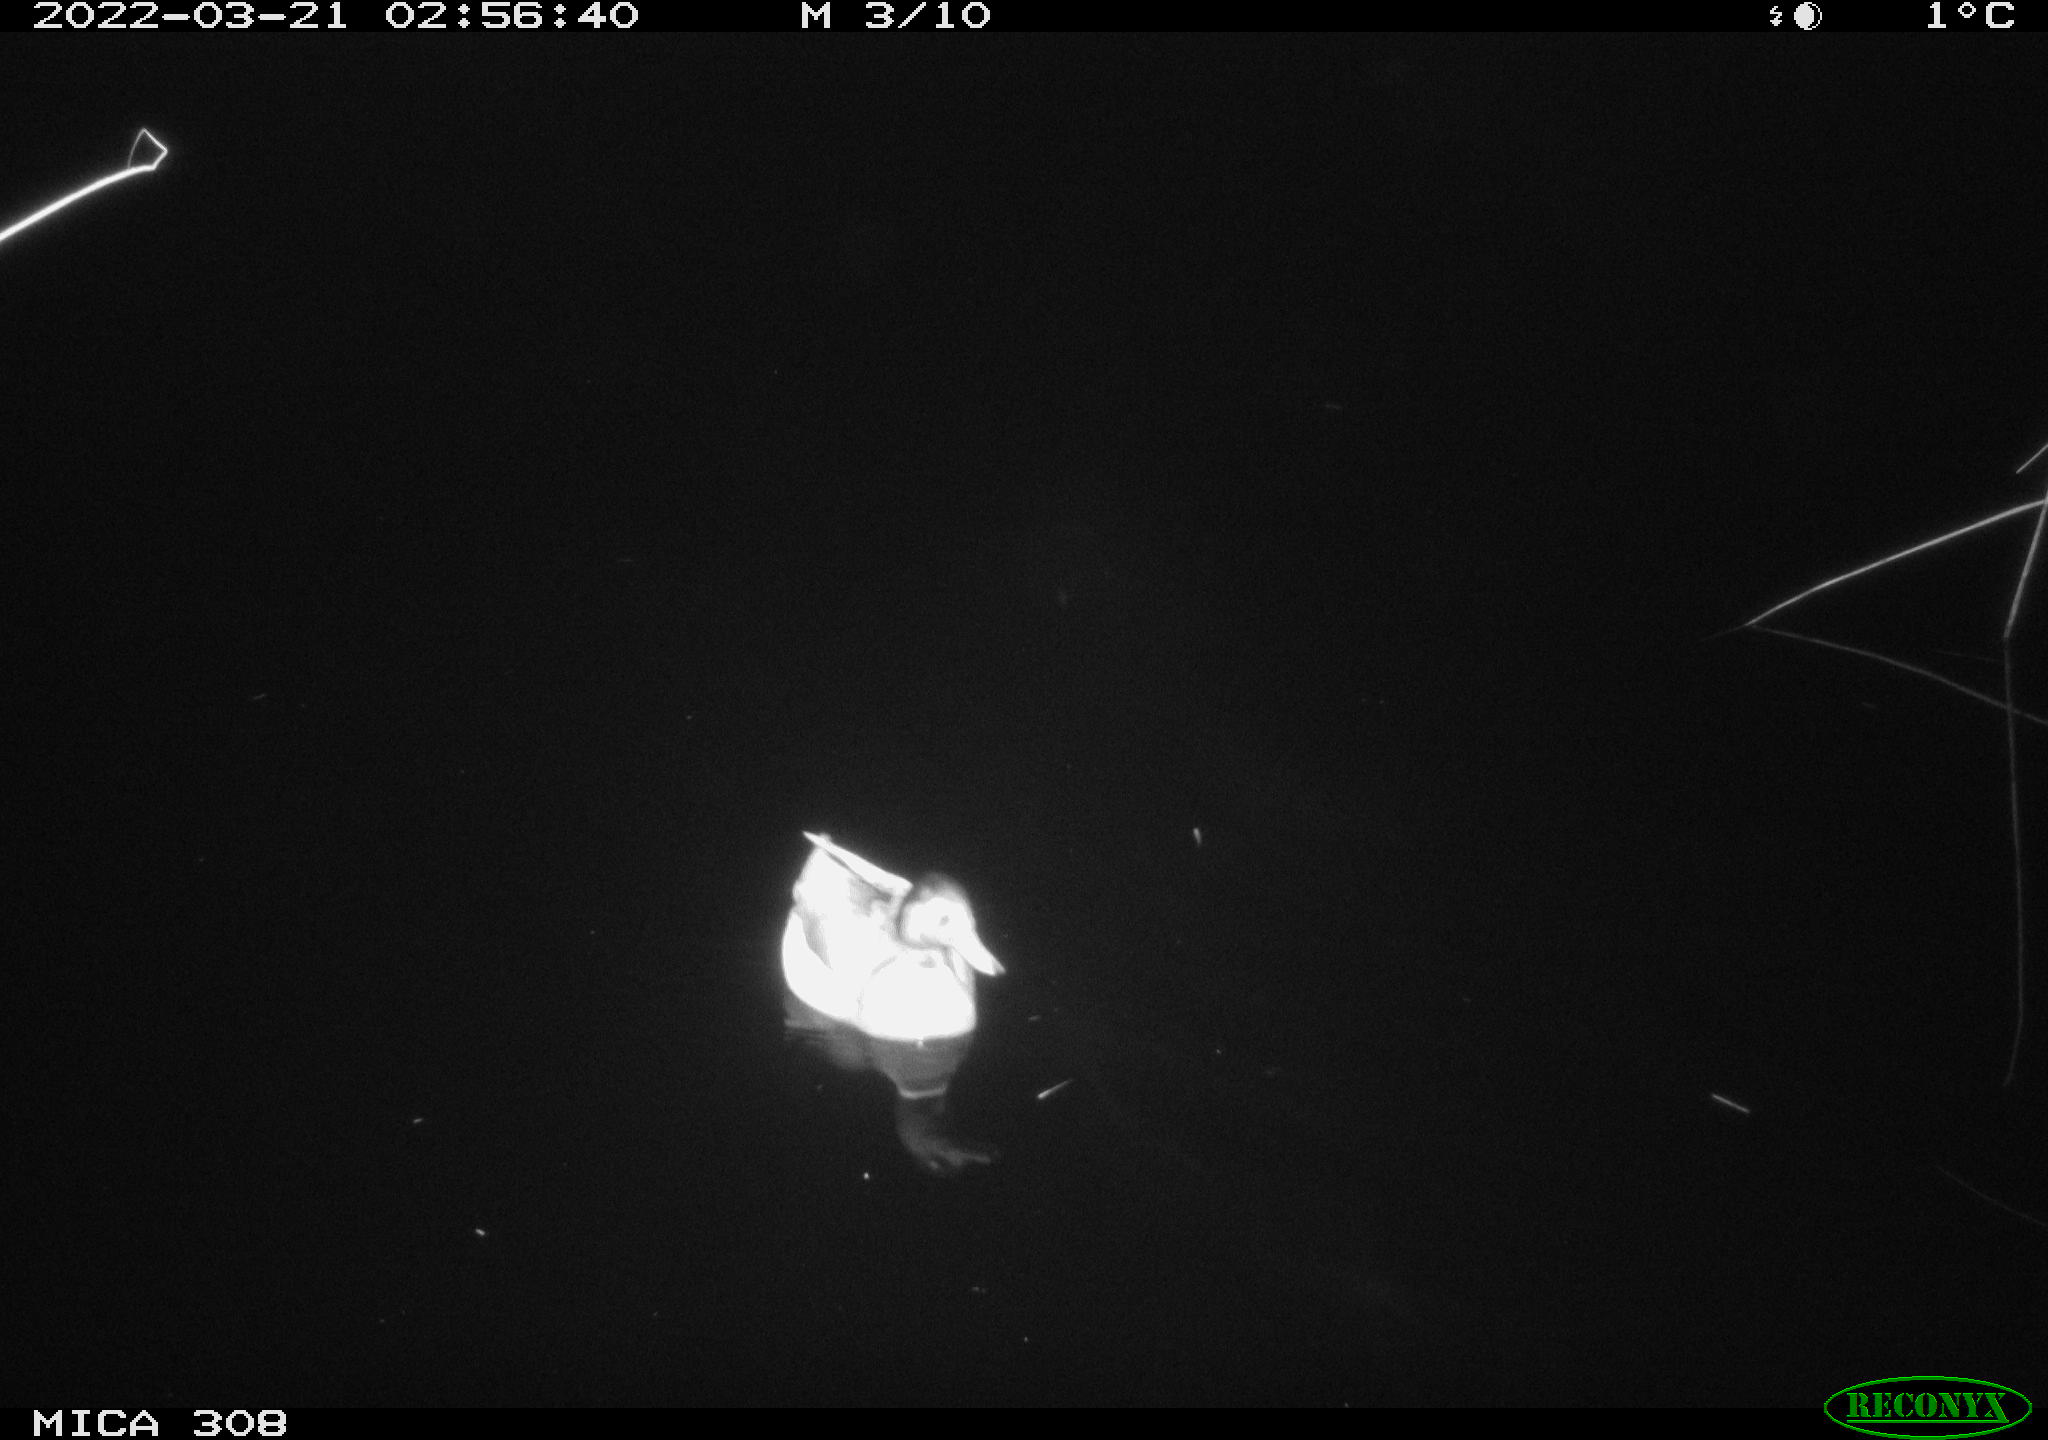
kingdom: Animalia
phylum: Chordata
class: Aves
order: Anseriformes
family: Anatidae
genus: Anas
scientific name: Anas platyrhynchos
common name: Mallard
